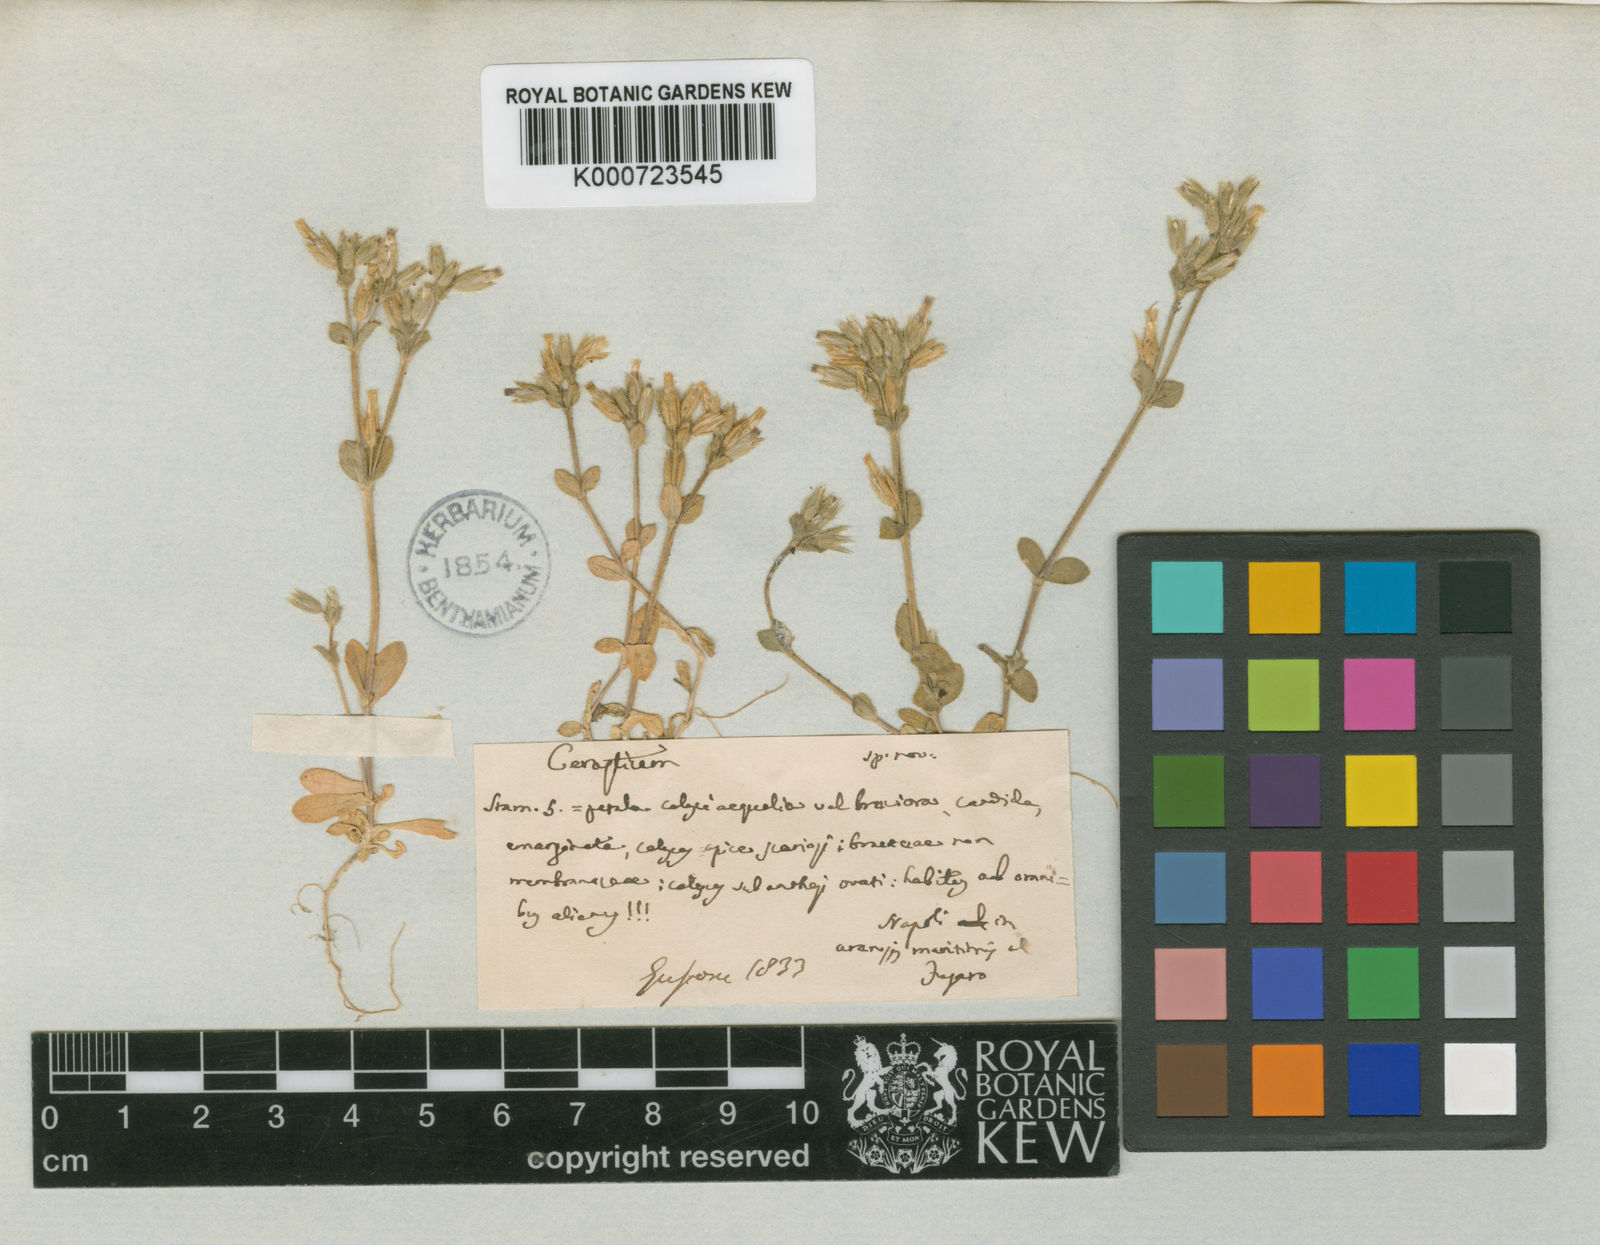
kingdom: Plantae
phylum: Tracheophyta
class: Magnoliopsida
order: Caryophyllales
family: Caryophyllaceae
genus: Cerastium
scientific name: Cerastium siculum
